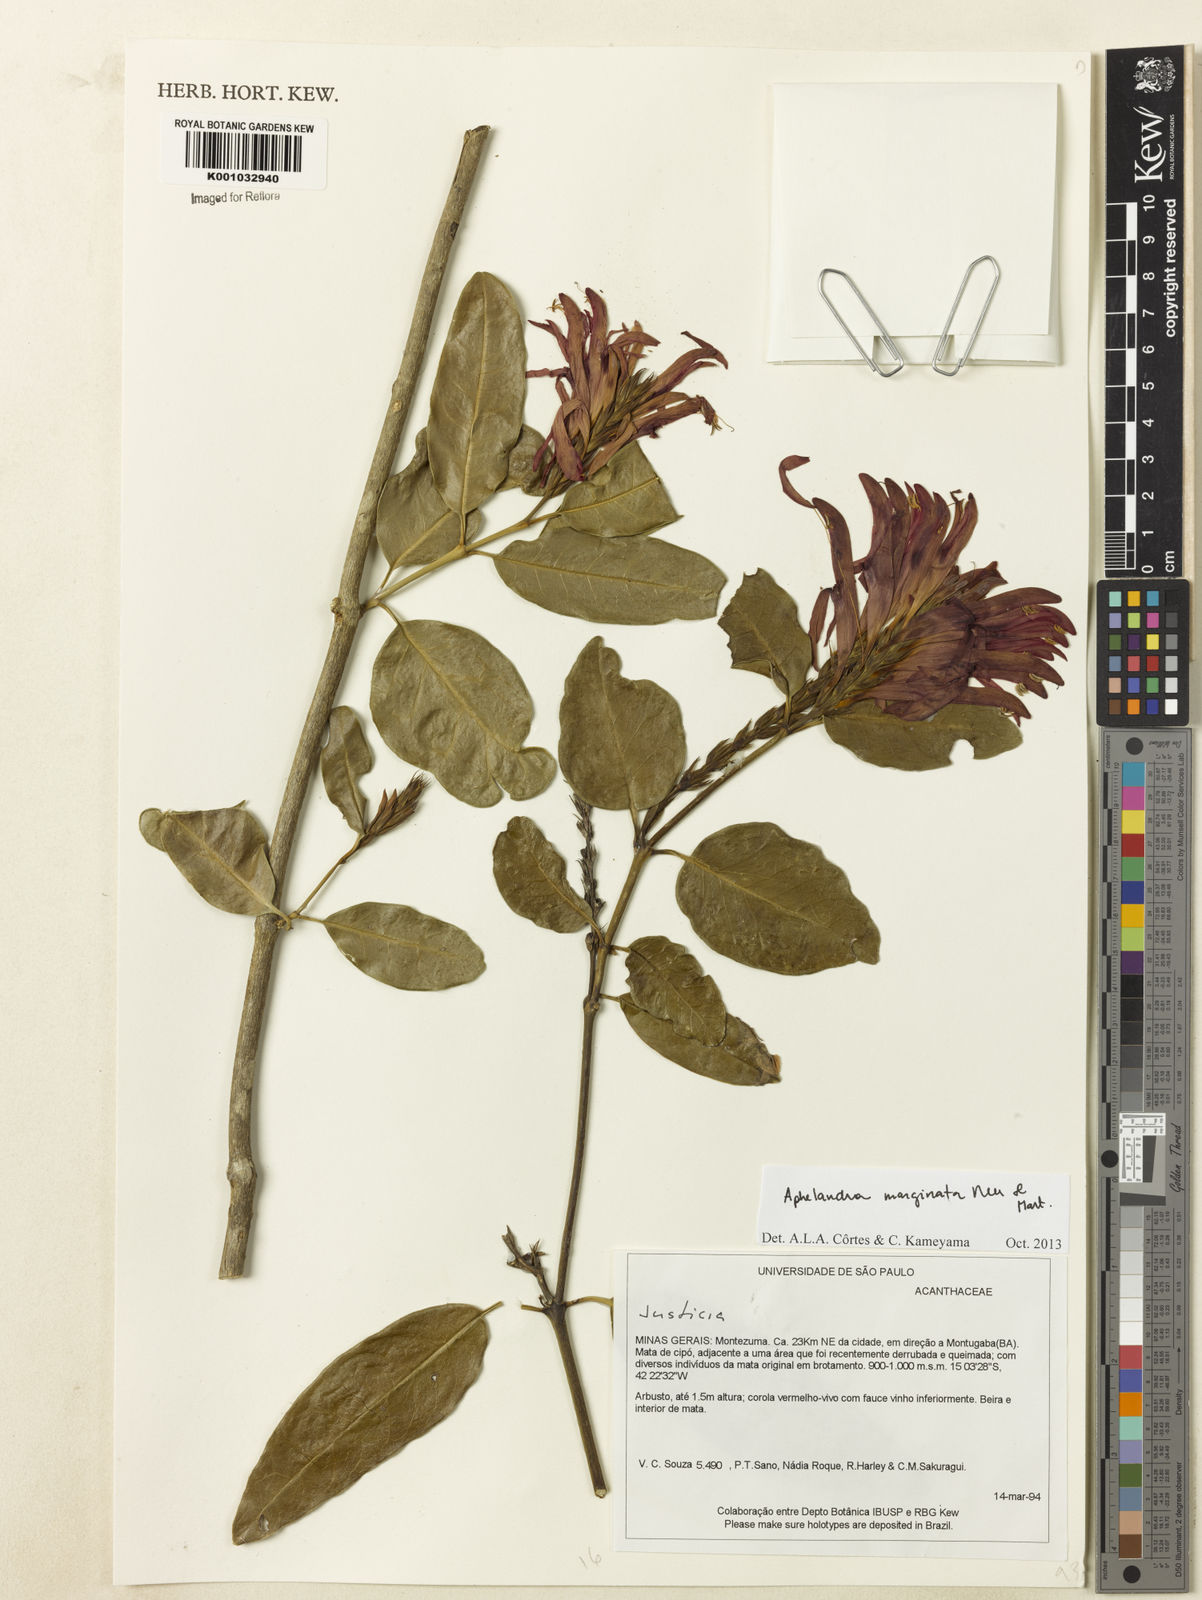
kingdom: Plantae
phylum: Tracheophyta
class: Magnoliopsida
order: Lamiales
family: Acanthaceae
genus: Aphelandra
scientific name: Aphelandra marginata
